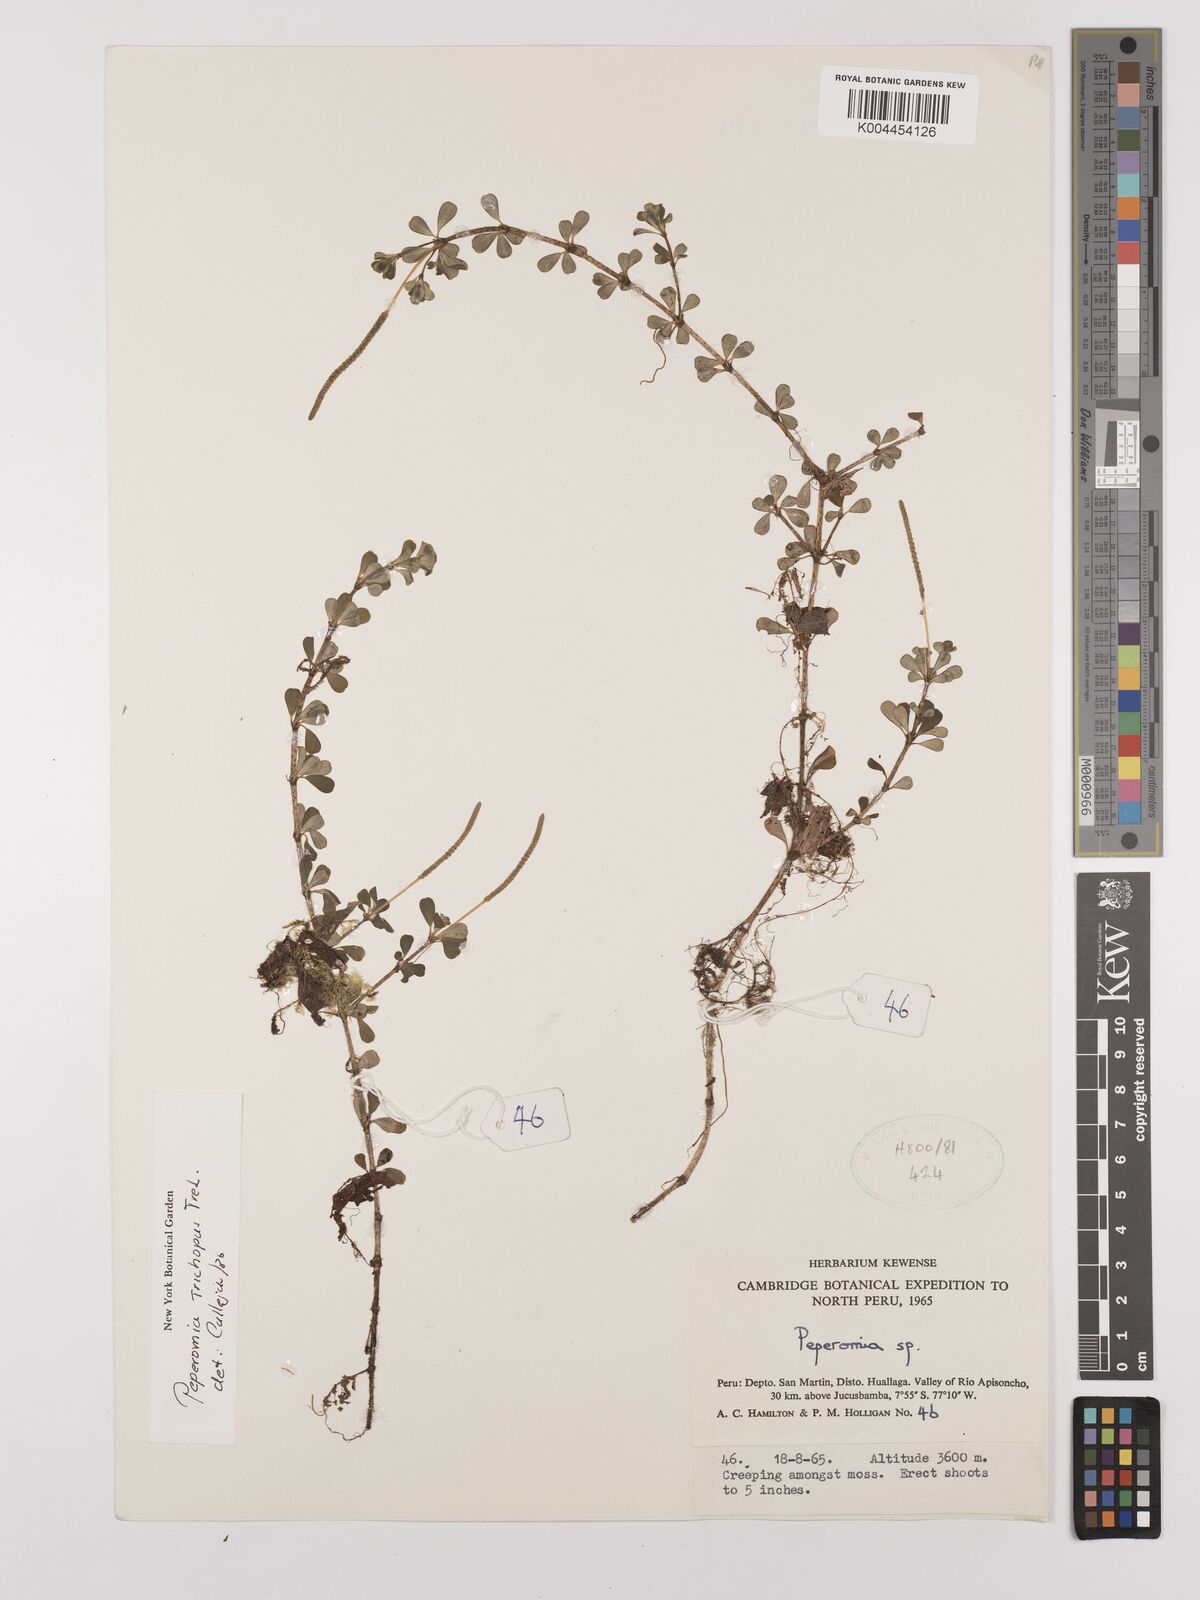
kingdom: Plantae
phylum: Tracheophyta
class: Magnoliopsida
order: Piperales
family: Piperaceae
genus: Peperomia
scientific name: Peperomia trichopus
